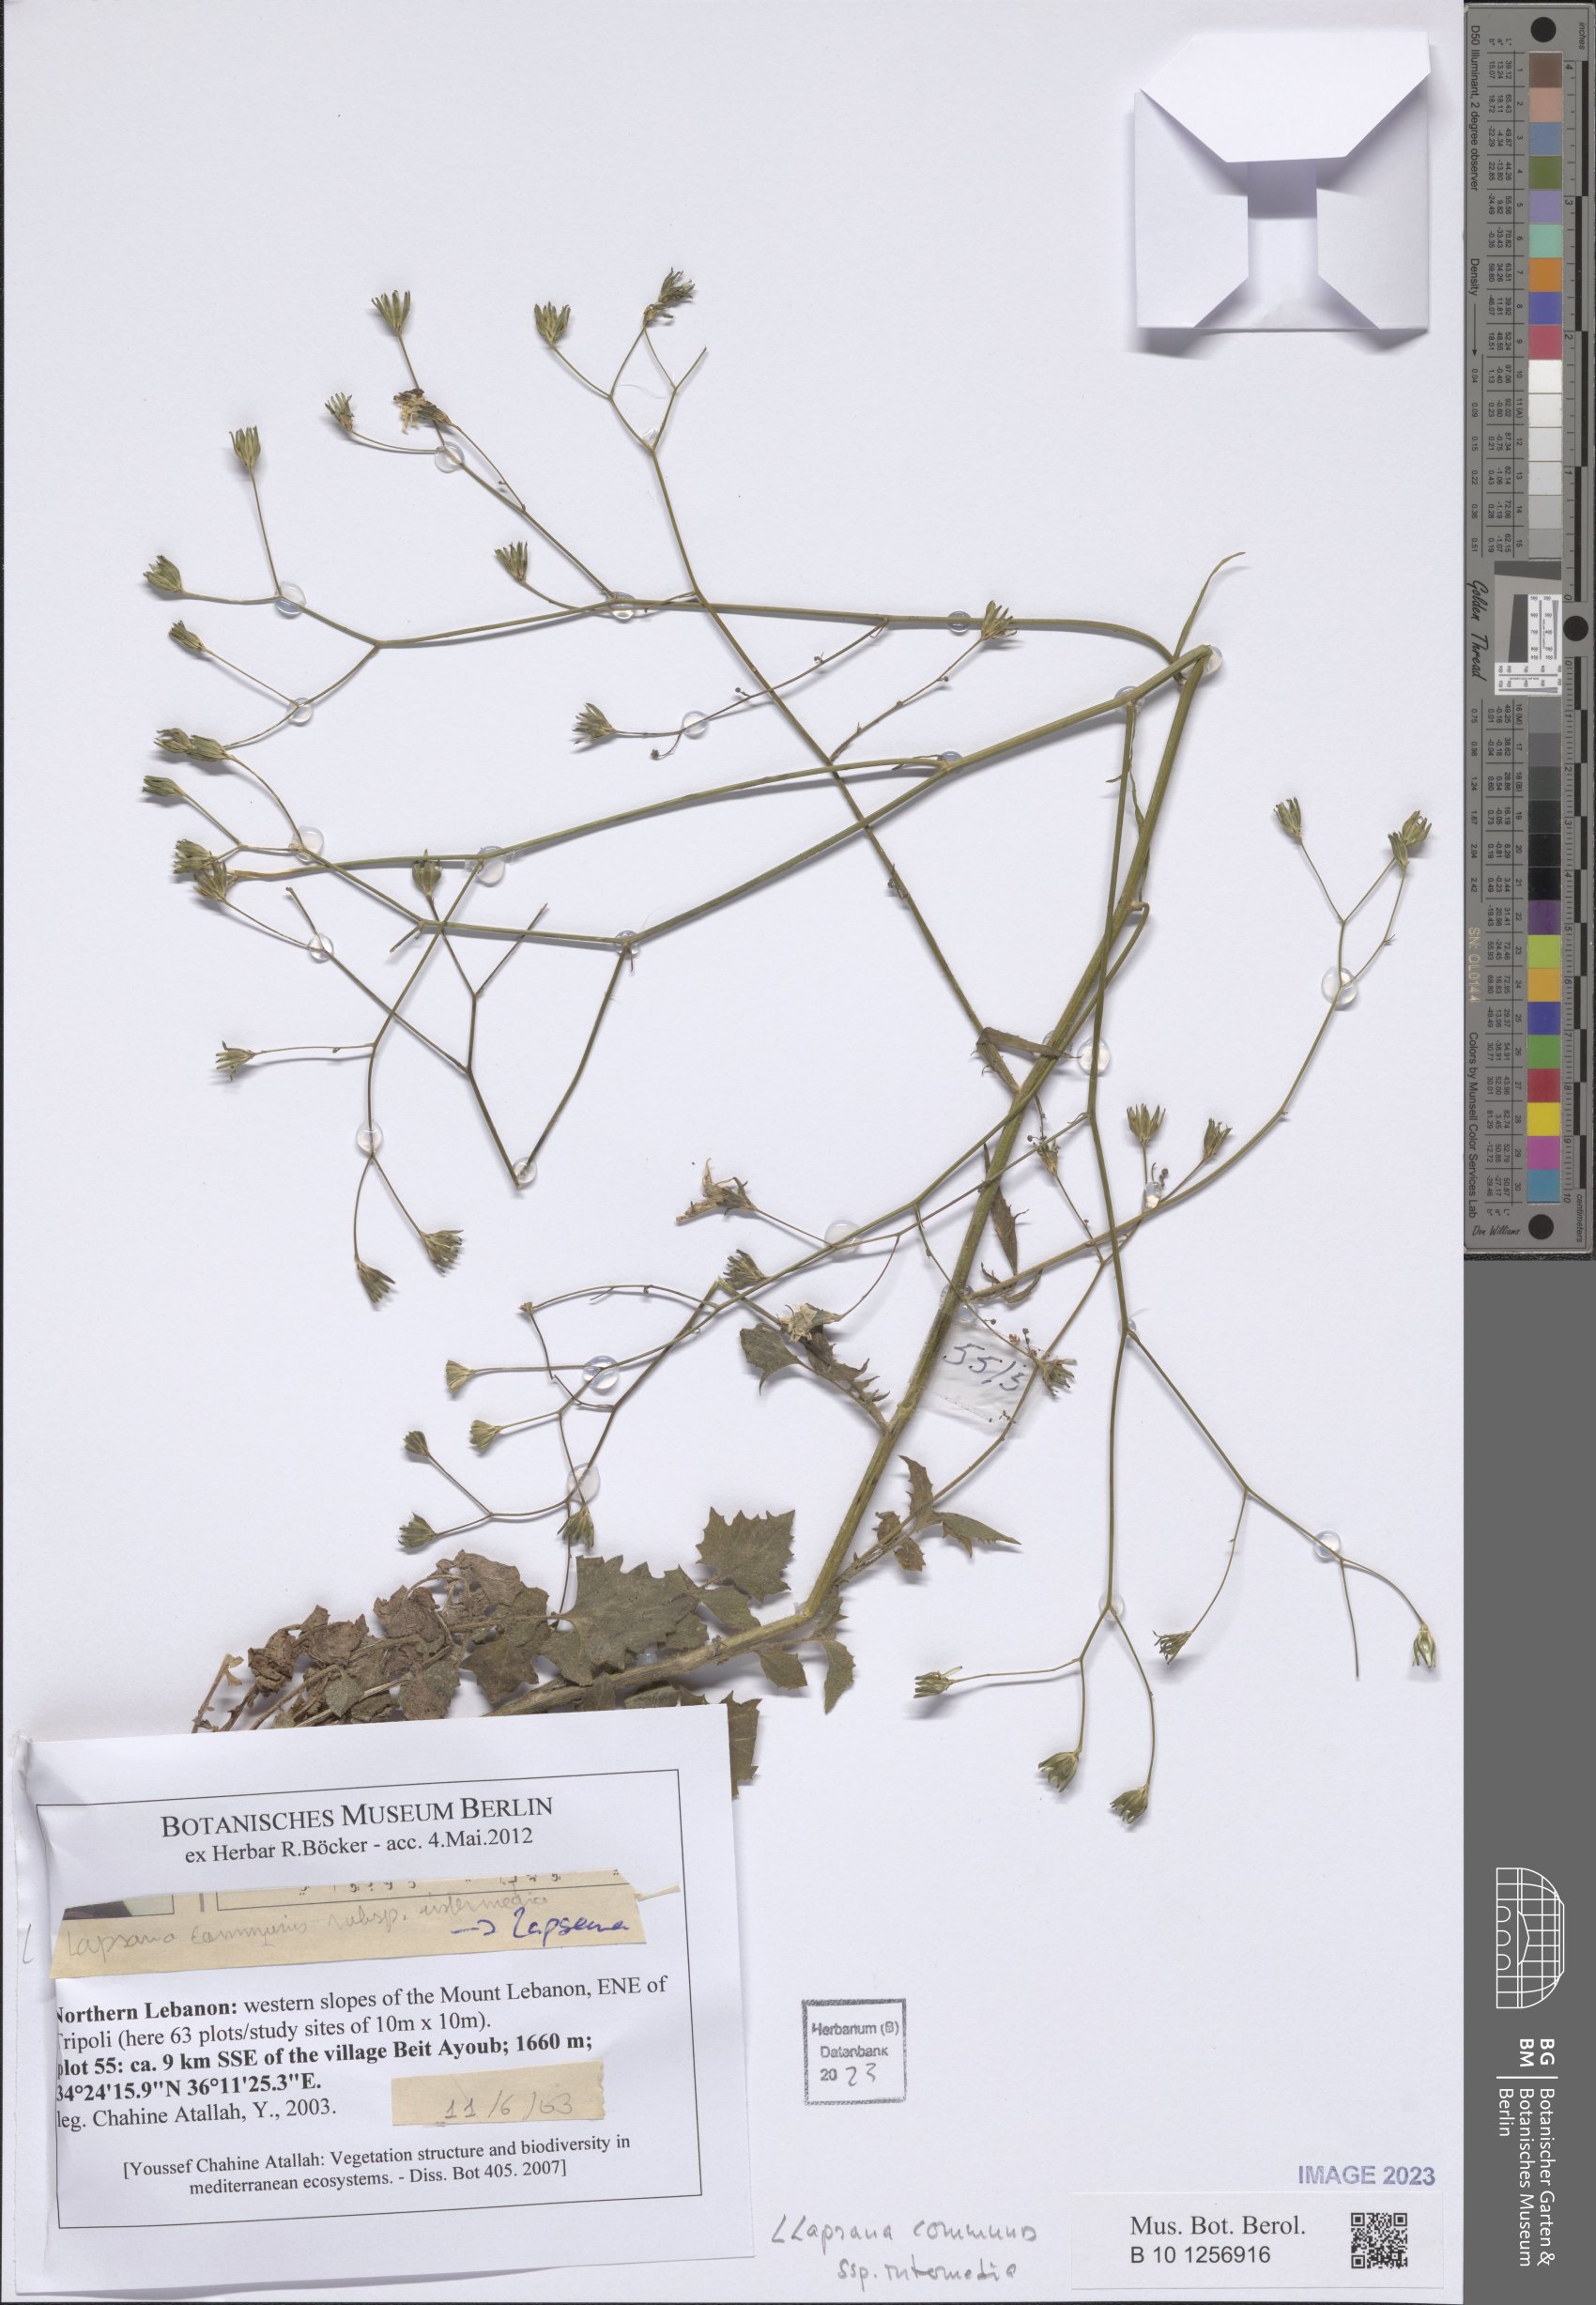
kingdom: Plantae
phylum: Tracheophyta
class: Magnoliopsida
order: Asterales
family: Asteraceae
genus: Lapsana
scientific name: Lapsana communis
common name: Nipplewort
